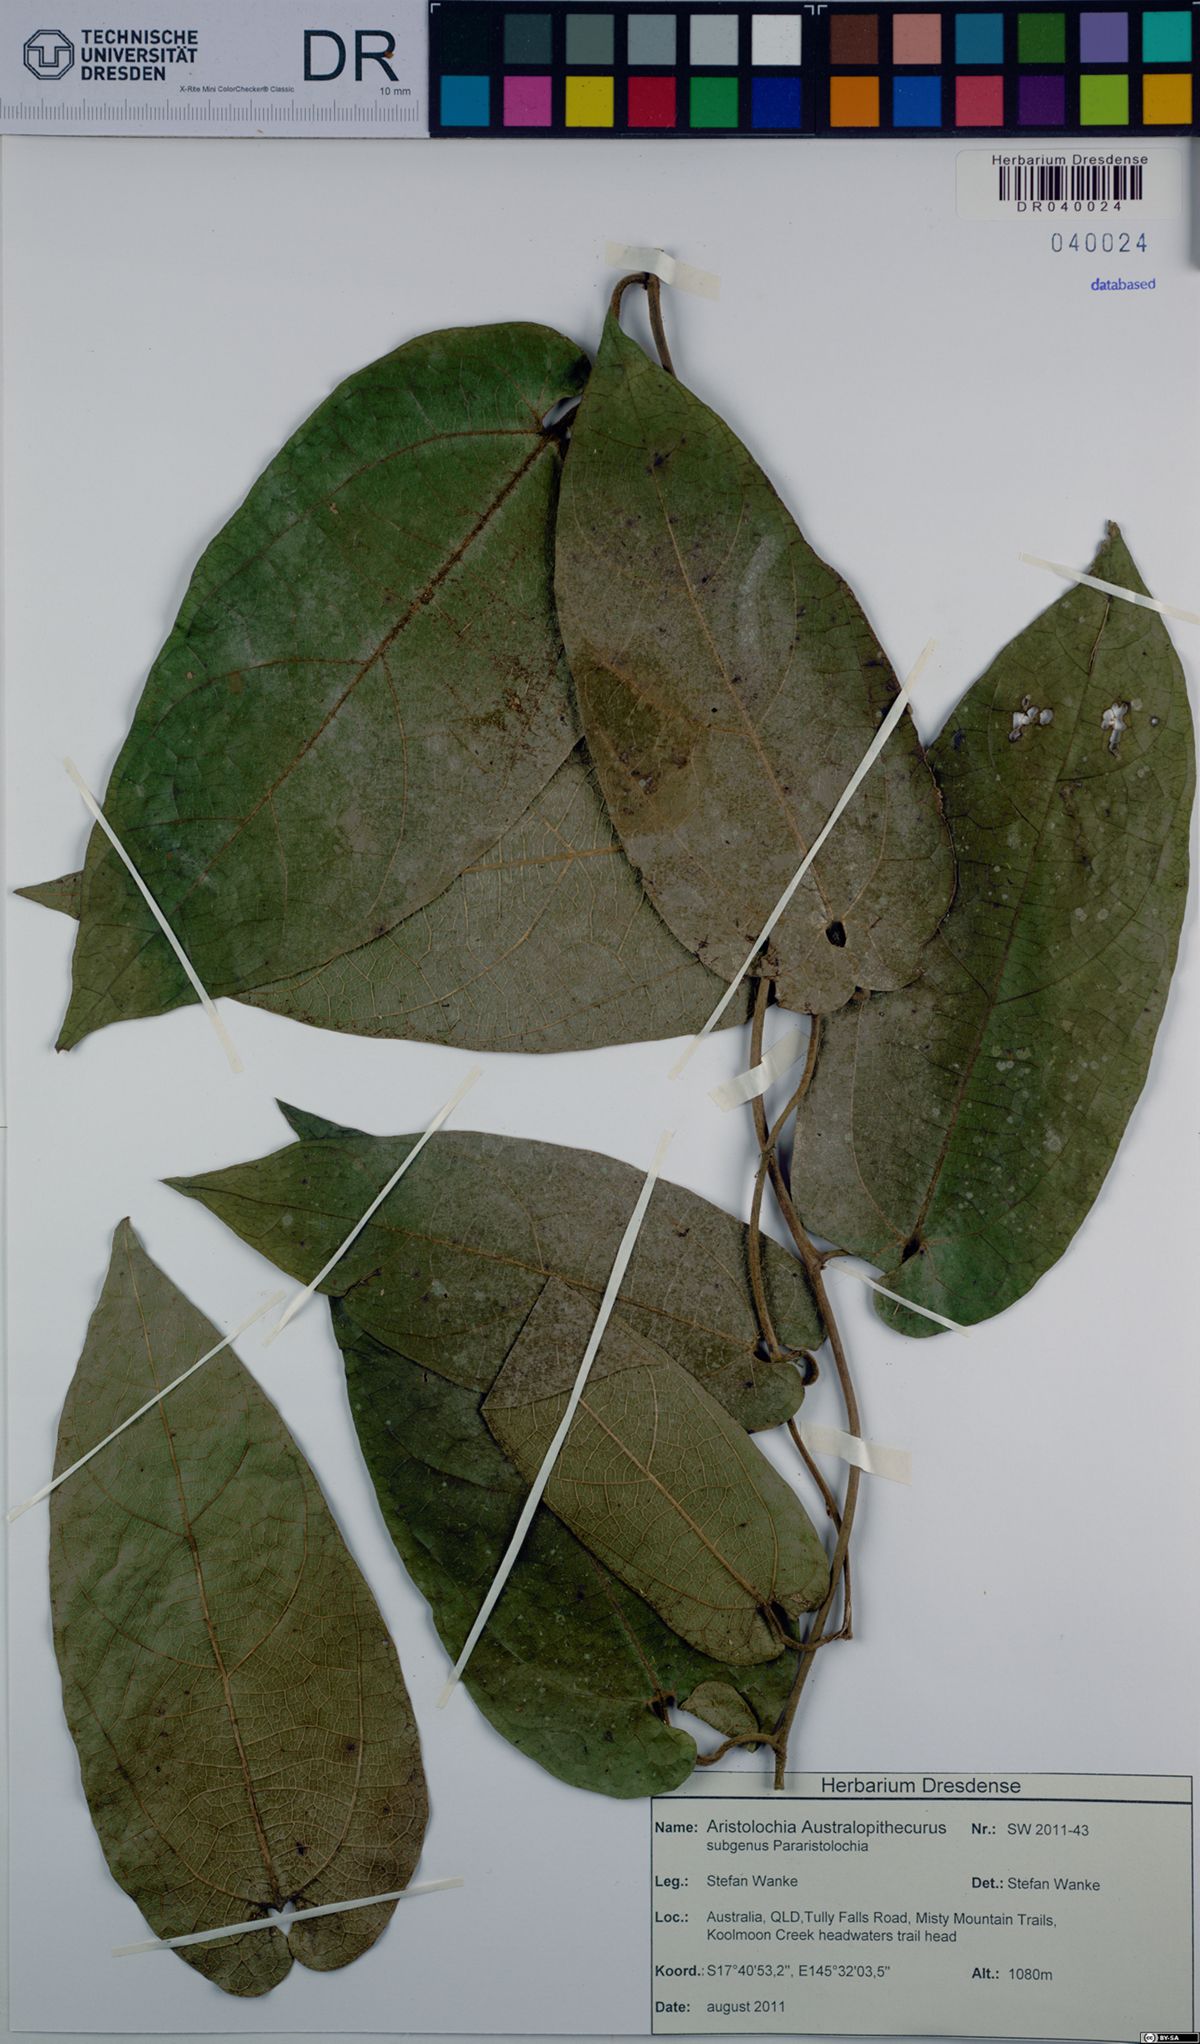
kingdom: Plantae
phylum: Tracheophyta
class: Magnoliopsida
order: Piperales
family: Aristolochiaceae
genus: Aristolochia
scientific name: Aristolochia australopithecurus
